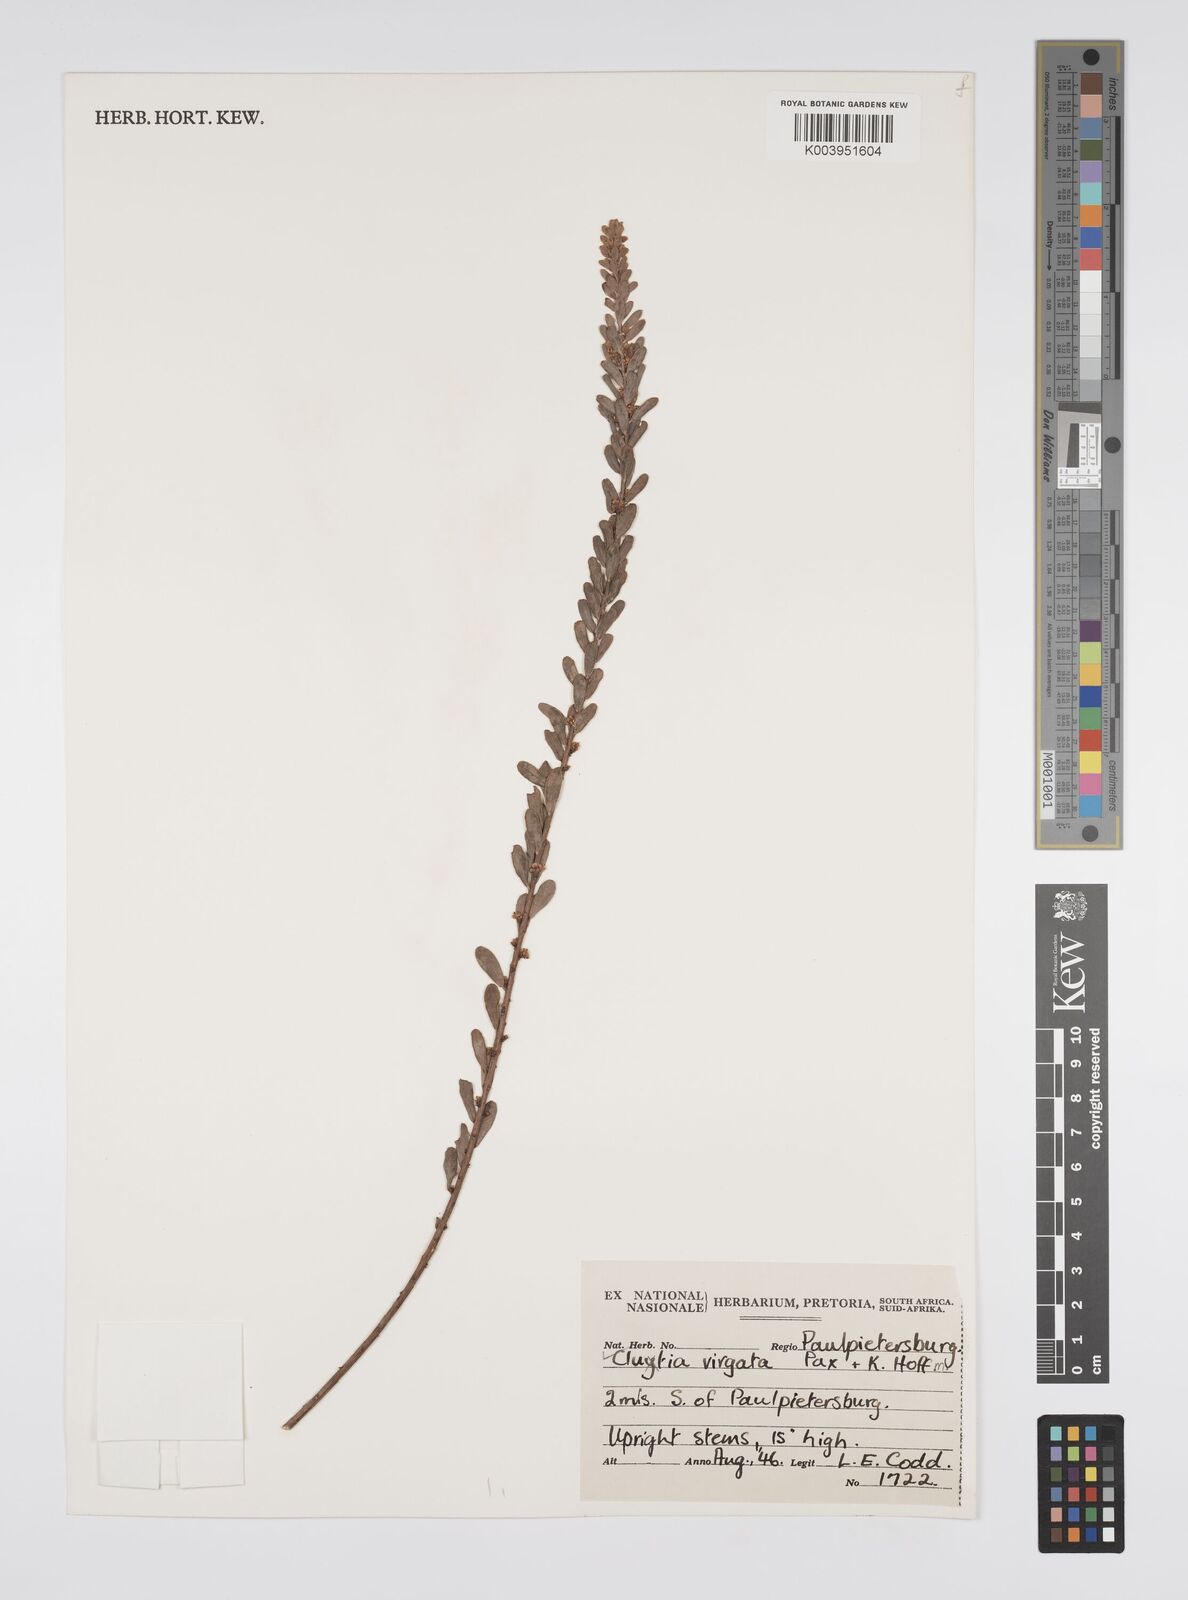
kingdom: Plantae
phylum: Tracheophyta
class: Magnoliopsida
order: Malpighiales
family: Peraceae
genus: Clutia
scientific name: Clutia virgata
